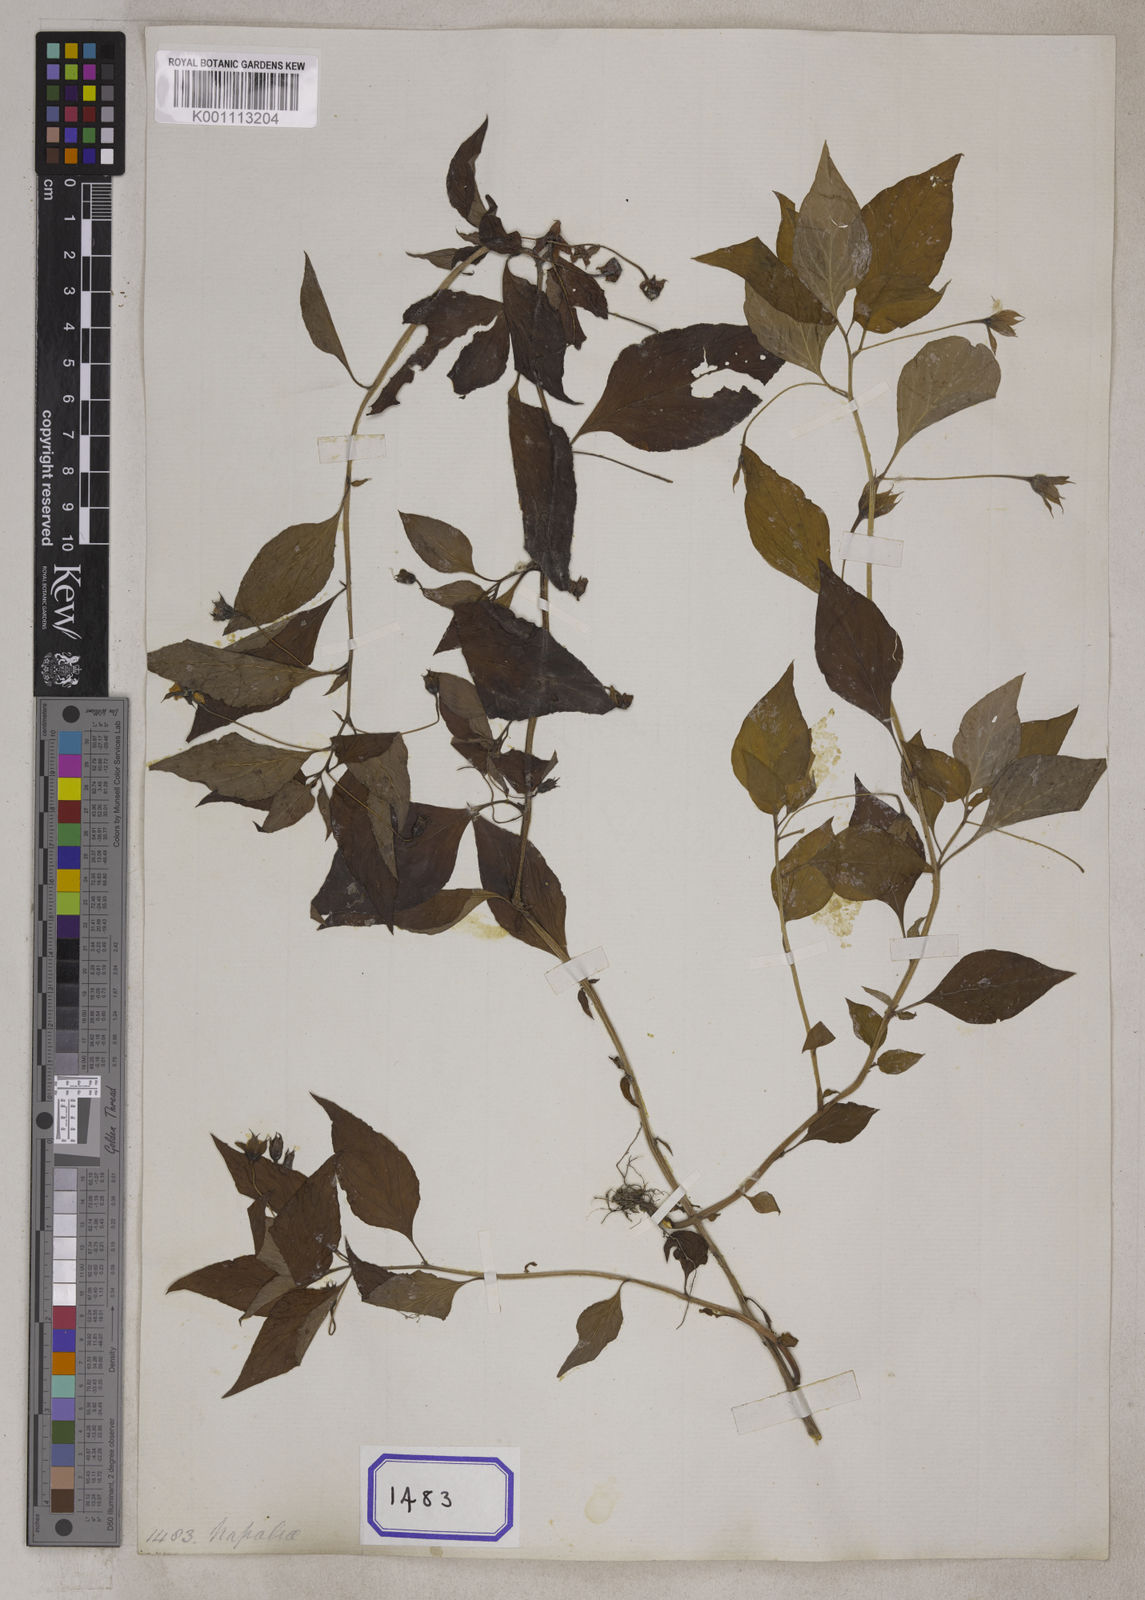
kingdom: Plantae
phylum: Tracheophyta
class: Magnoliopsida
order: Ericales
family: Primulaceae
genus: Lysimachia
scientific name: Lysimachia evalvis
